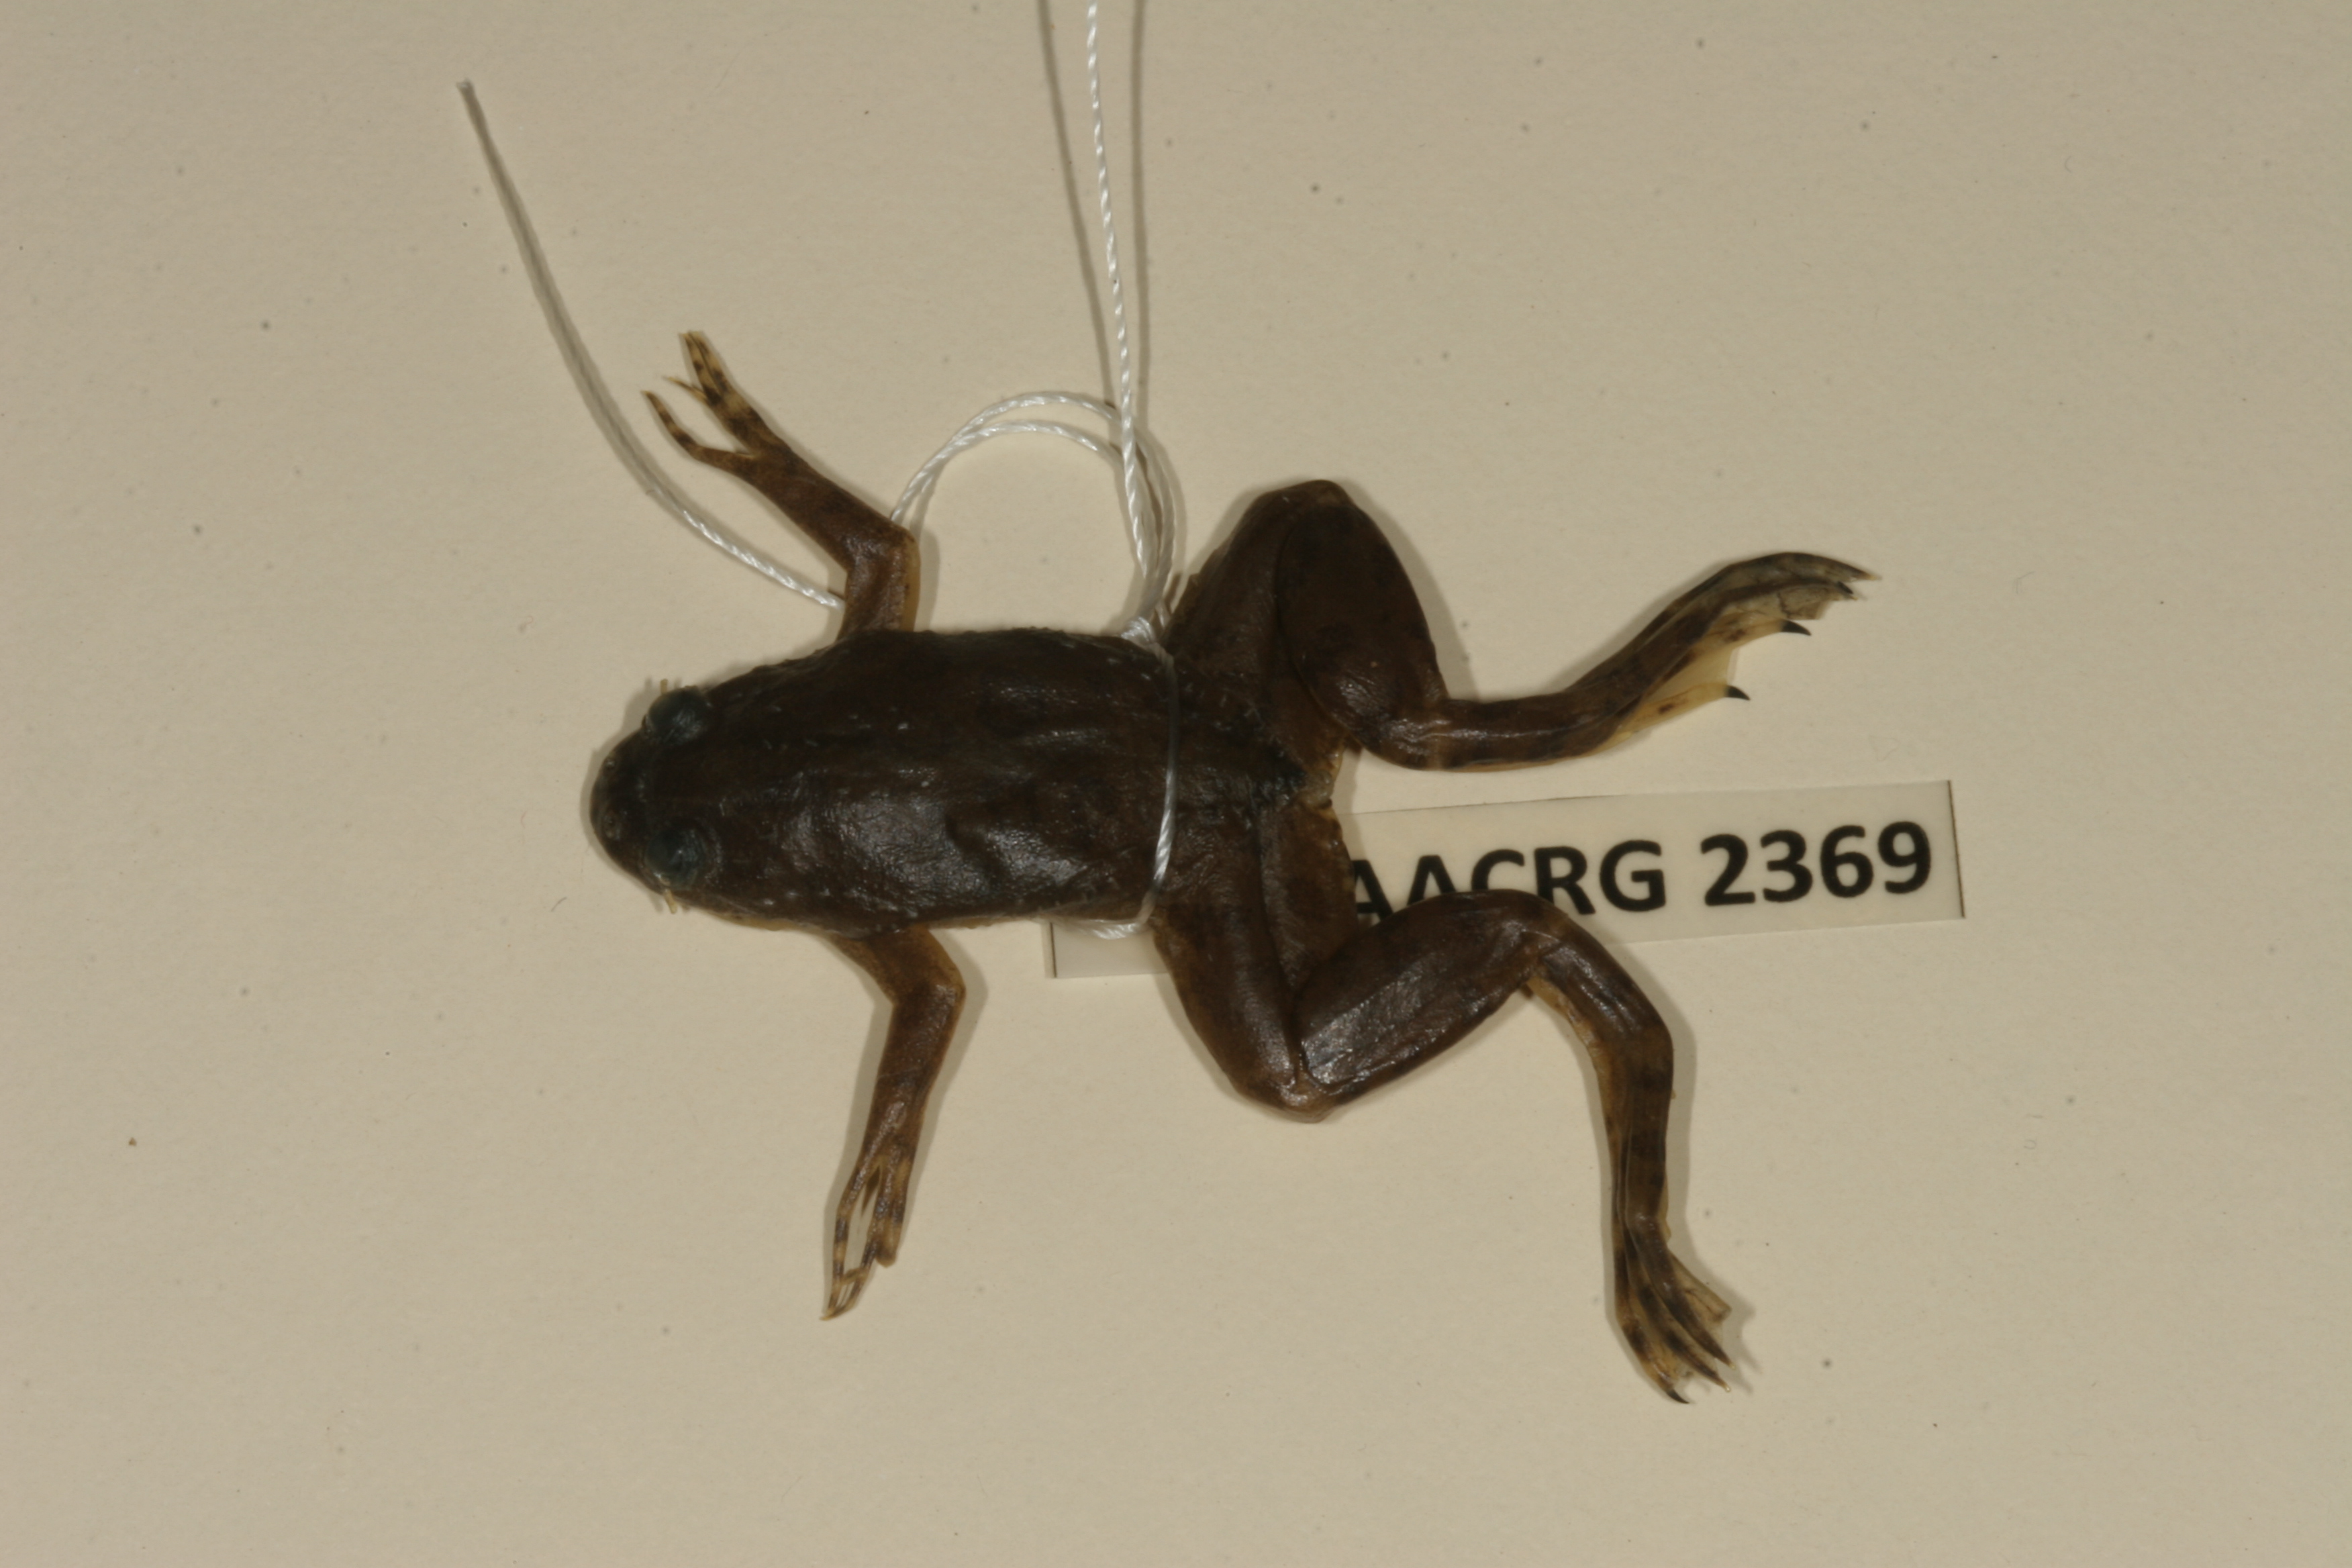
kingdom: Animalia
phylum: Chordata
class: Amphibia
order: Anura
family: Pipidae
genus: Xenopus
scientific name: Xenopus muelleri
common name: Muller's clawed frog
